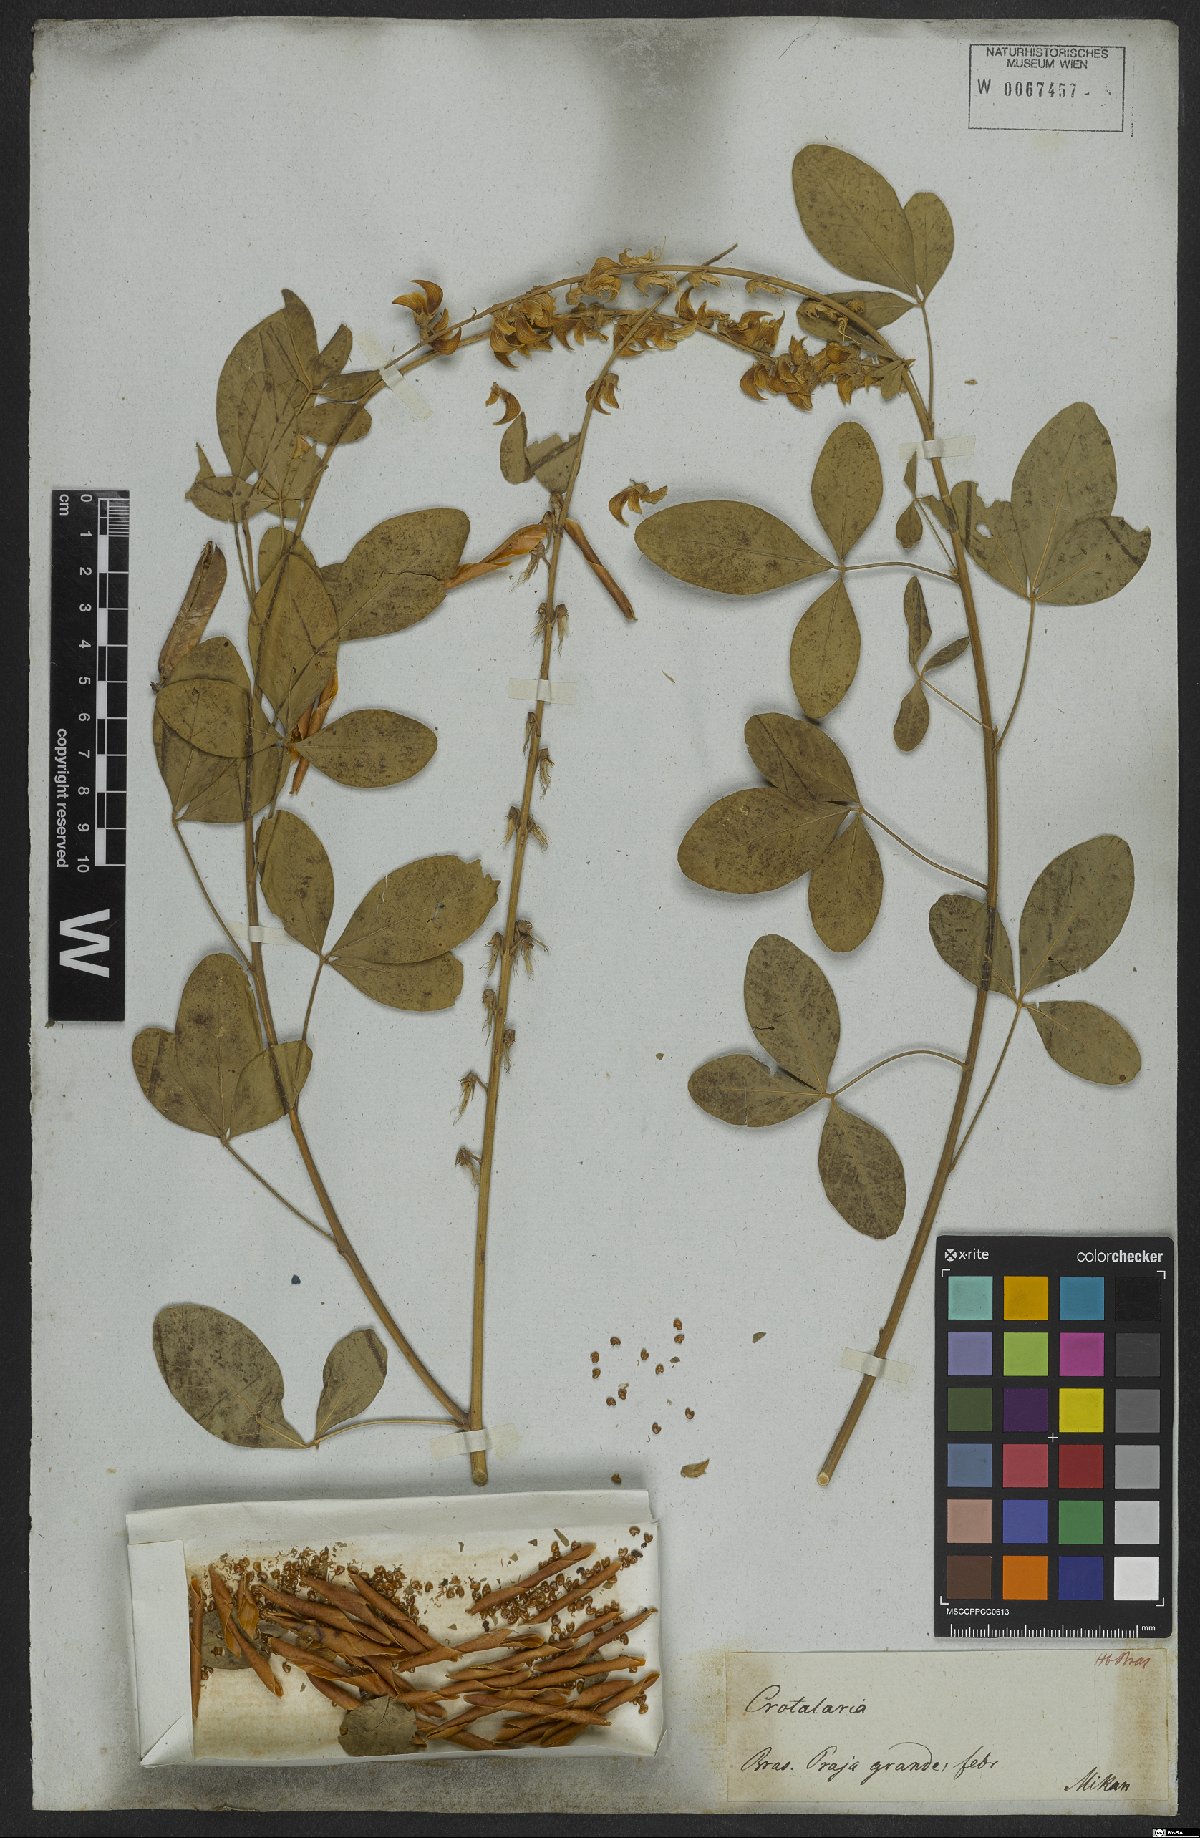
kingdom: Plantae
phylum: Tracheophyta
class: Magnoliopsida
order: Fabales
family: Fabaceae
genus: Crotalaria
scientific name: Crotalaria globifera
